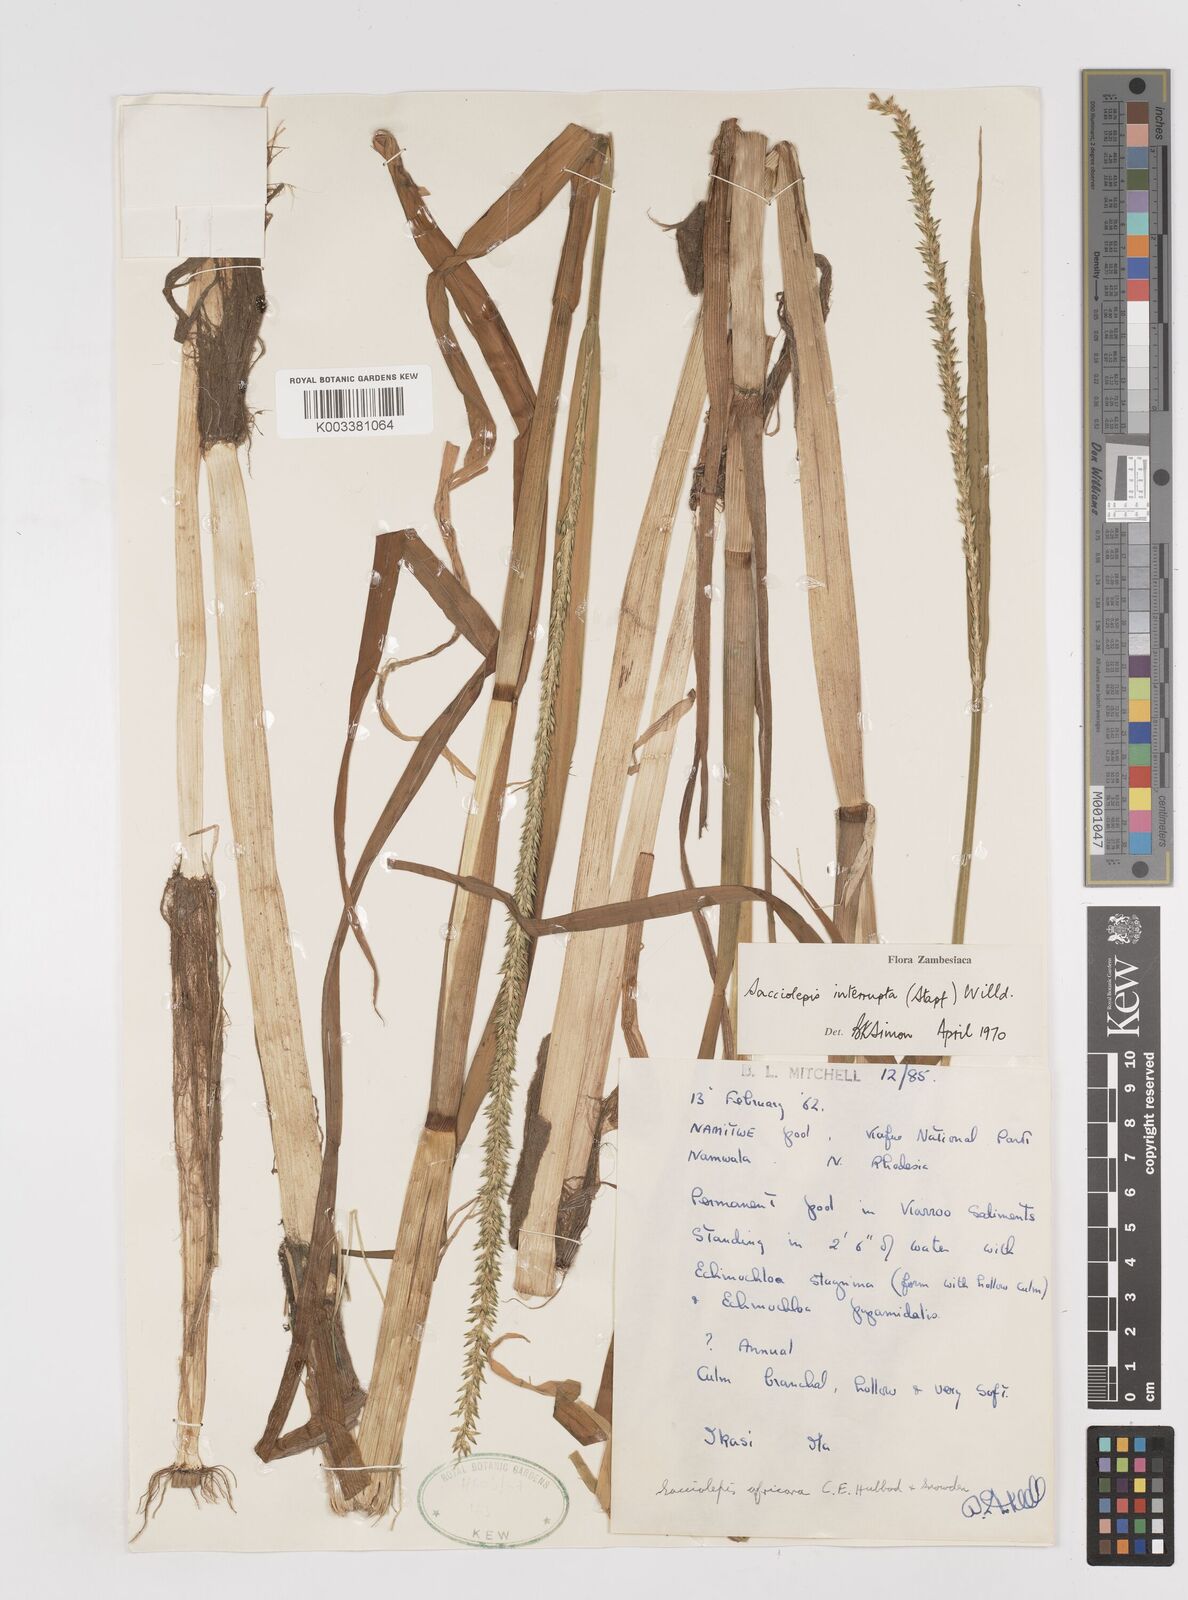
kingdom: Plantae
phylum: Tracheophyta
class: Liliopsida
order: Poales
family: Poaceae
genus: Sacciolepis
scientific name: Sacciolepis interrupta
